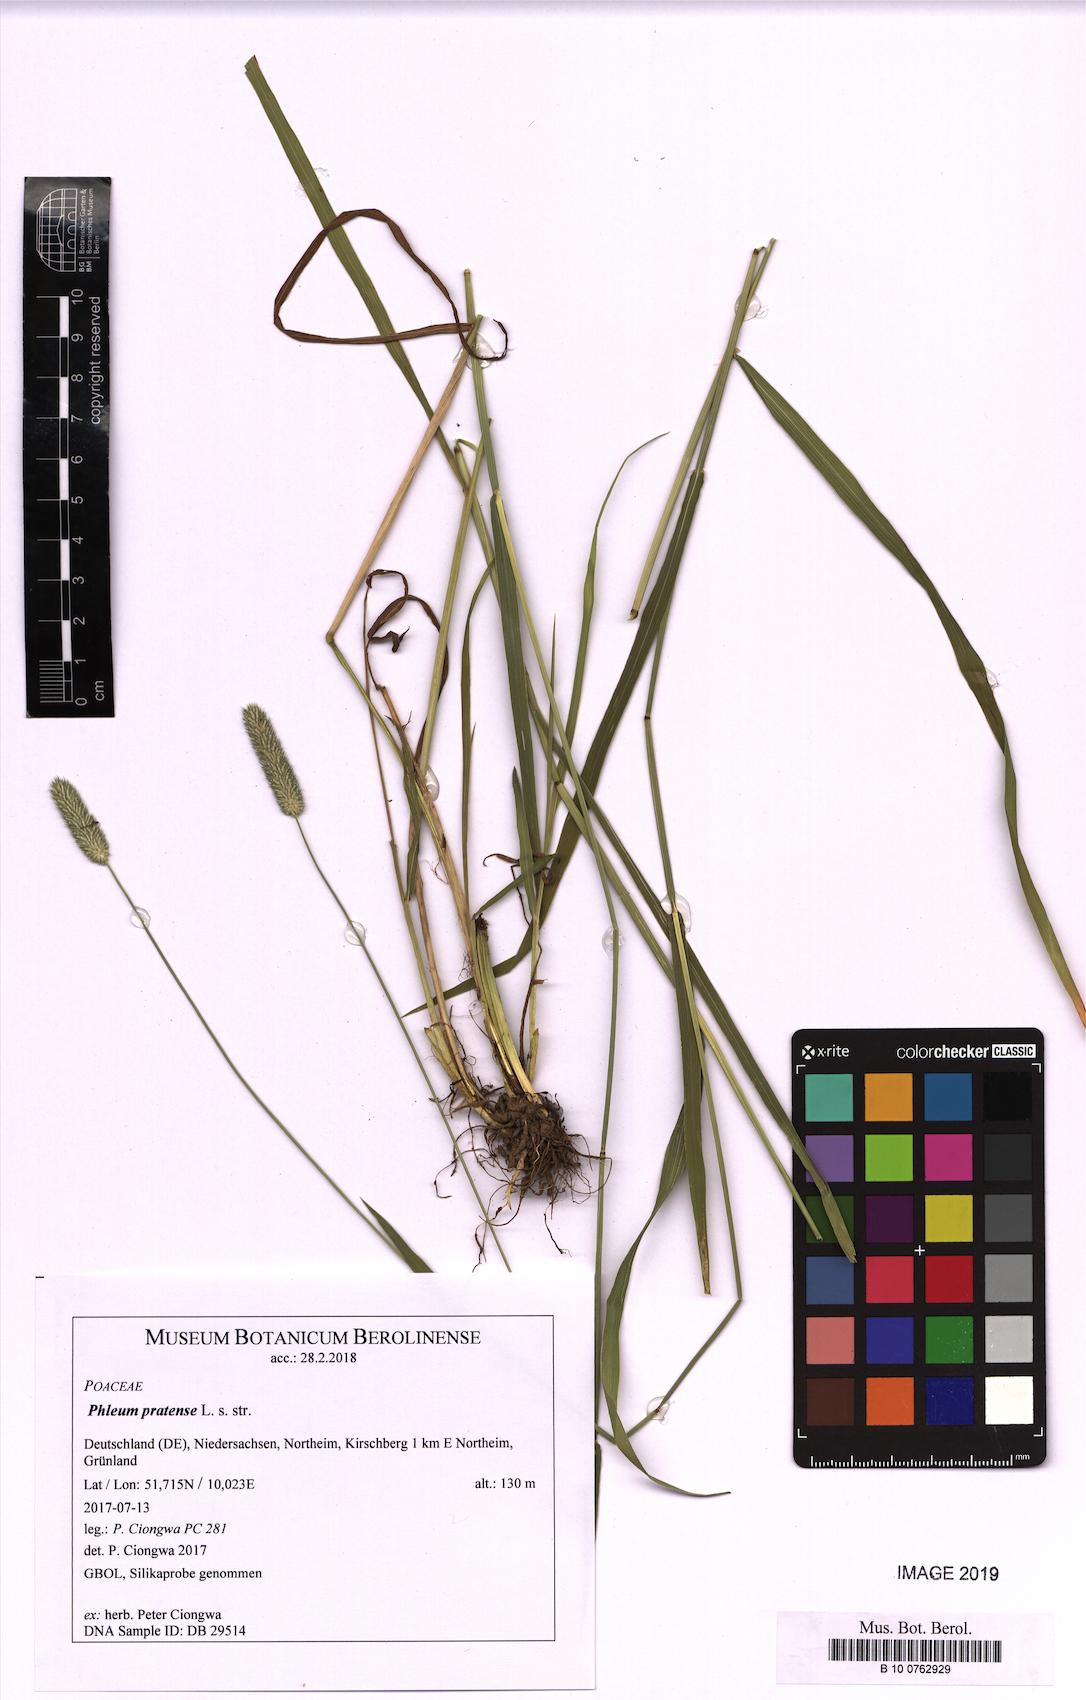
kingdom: Plantae
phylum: Tracheophyta
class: Liliopsida
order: Poales
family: Poaceae
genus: Phleum
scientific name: Phleum pratense
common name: Timothy grass
